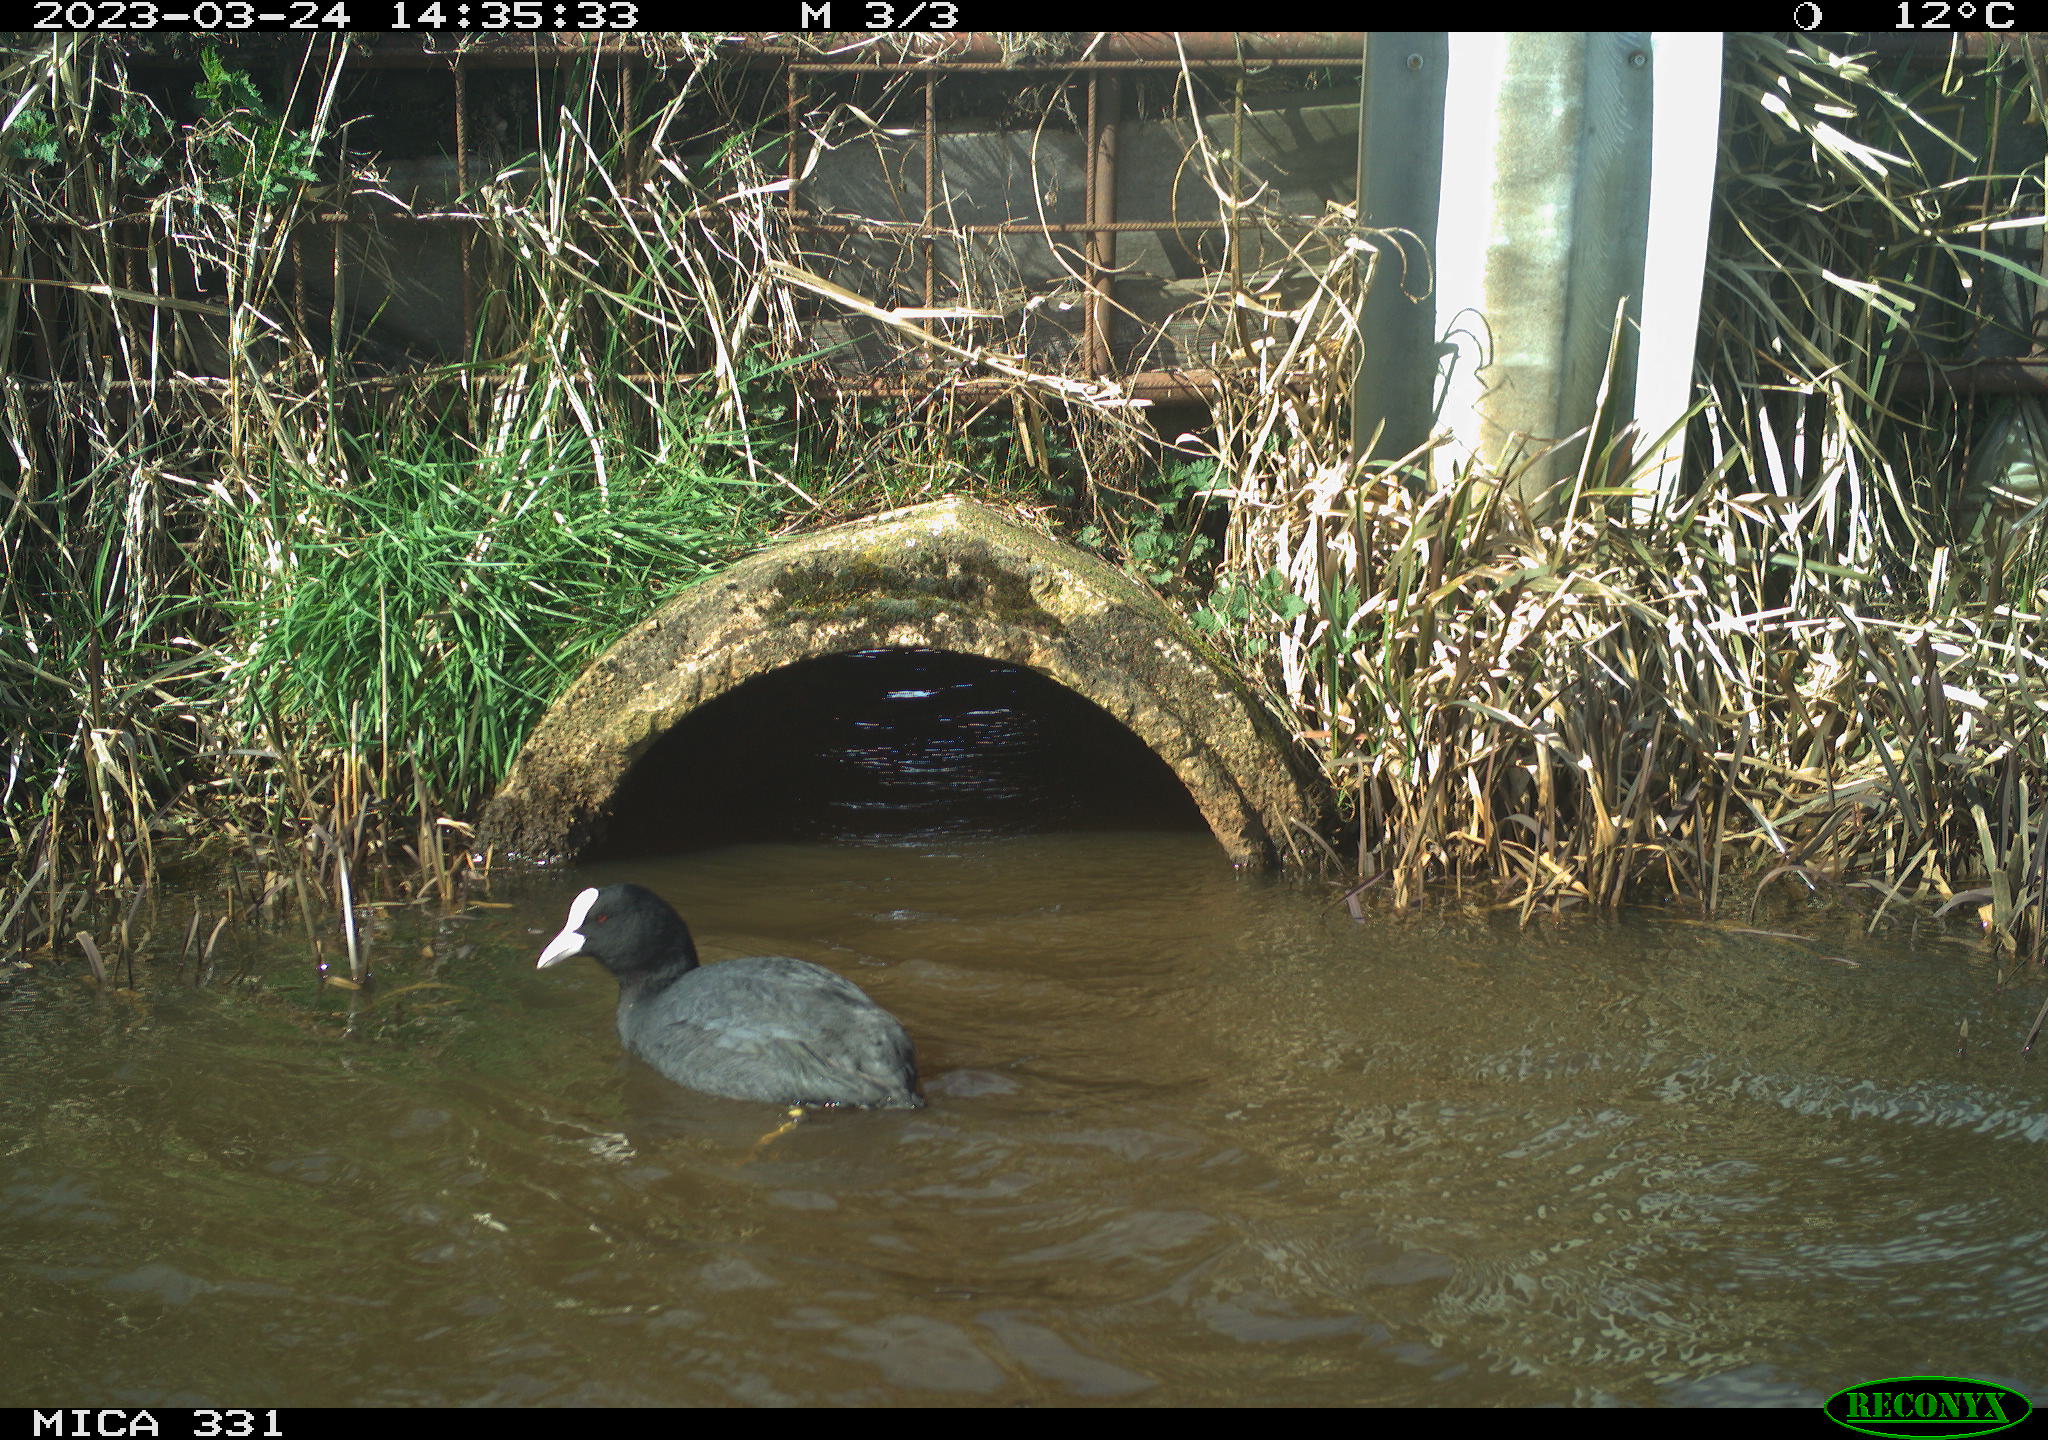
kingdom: Animalia
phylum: Chordata
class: Aves
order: Gruiformes
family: Rallidae
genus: Fulica
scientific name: Fulica atra
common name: Eurasian coot
